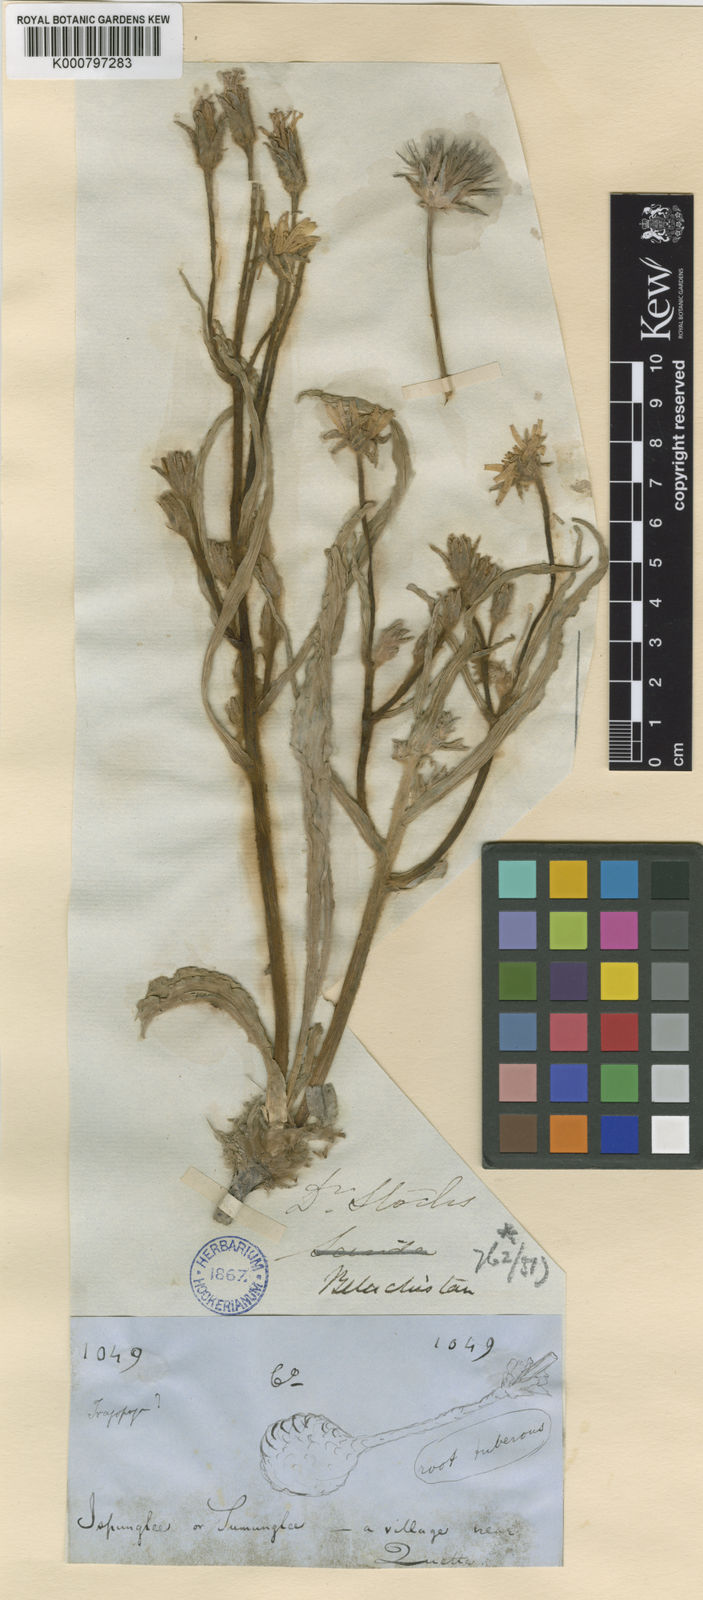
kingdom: Plantae
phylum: Tracheophyta
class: Magnoliopsida
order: Asterales
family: Asteraceae
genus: Scorzonera
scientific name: Scorzonera gageoides
